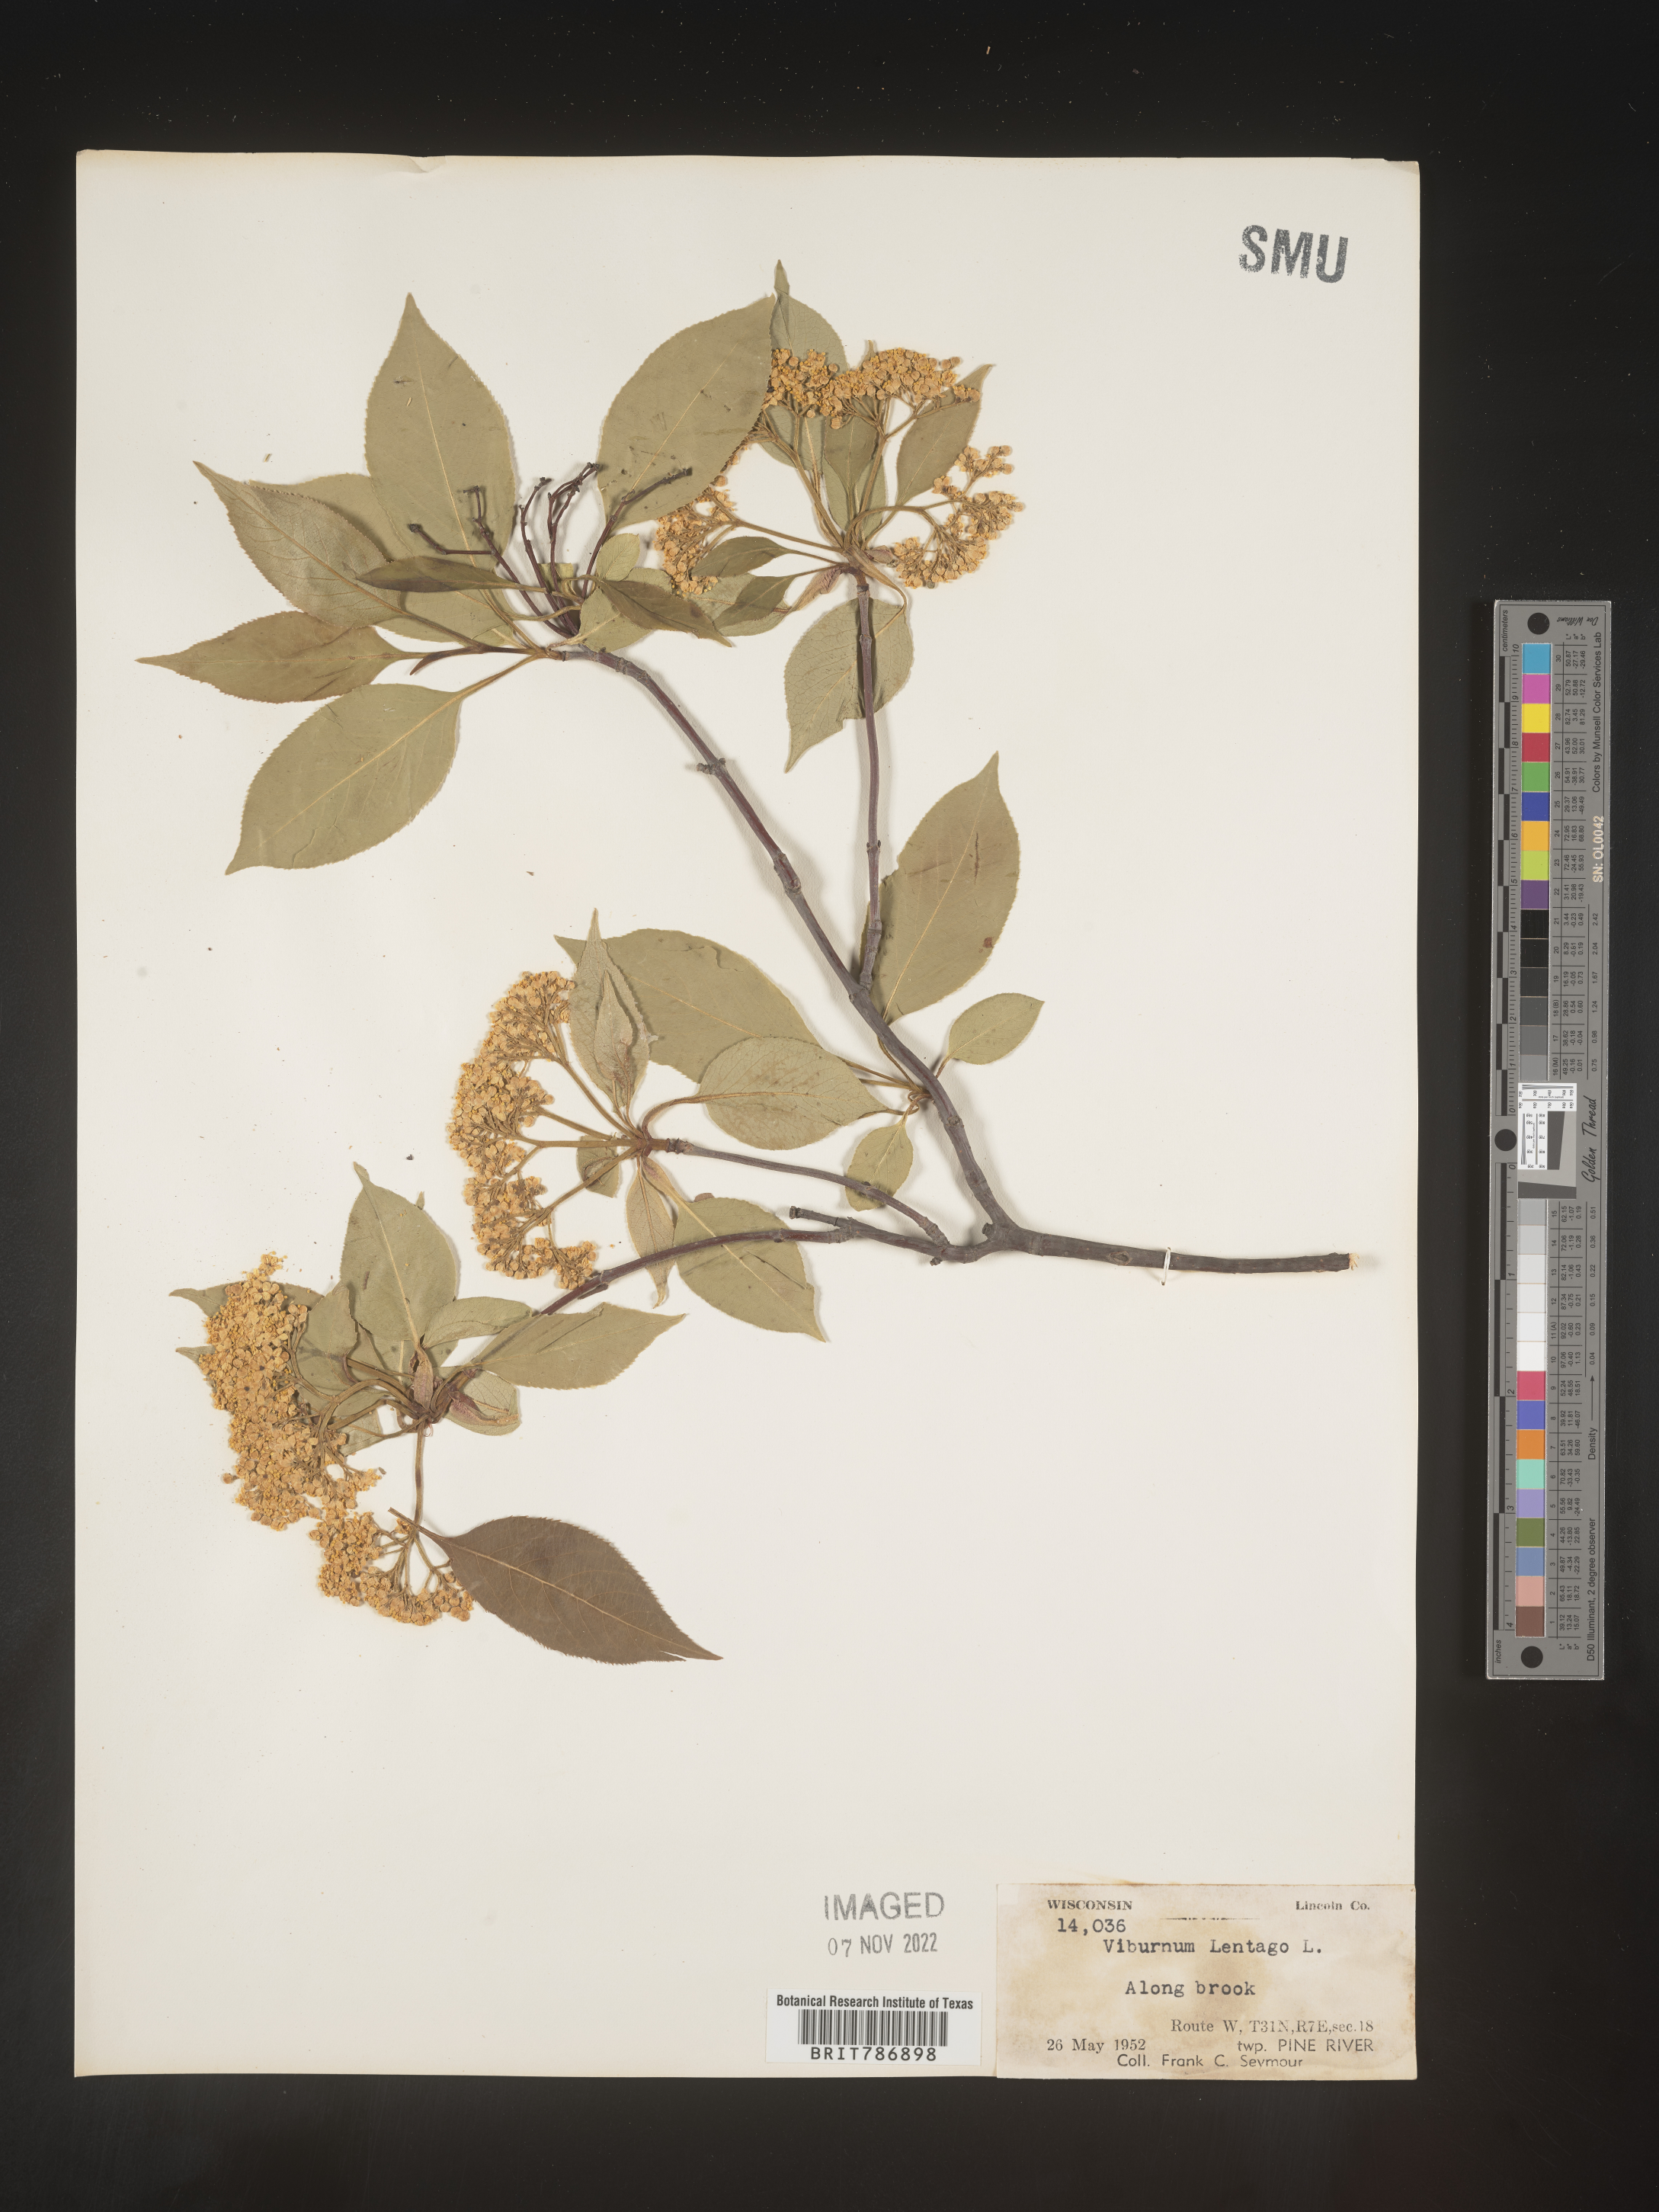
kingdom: Plantae
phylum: Tracheophyta
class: Magnoliopsida
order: Dipsacales
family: Viburnaceae
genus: Viburnum
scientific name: Viburnum lentago
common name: Black haw
